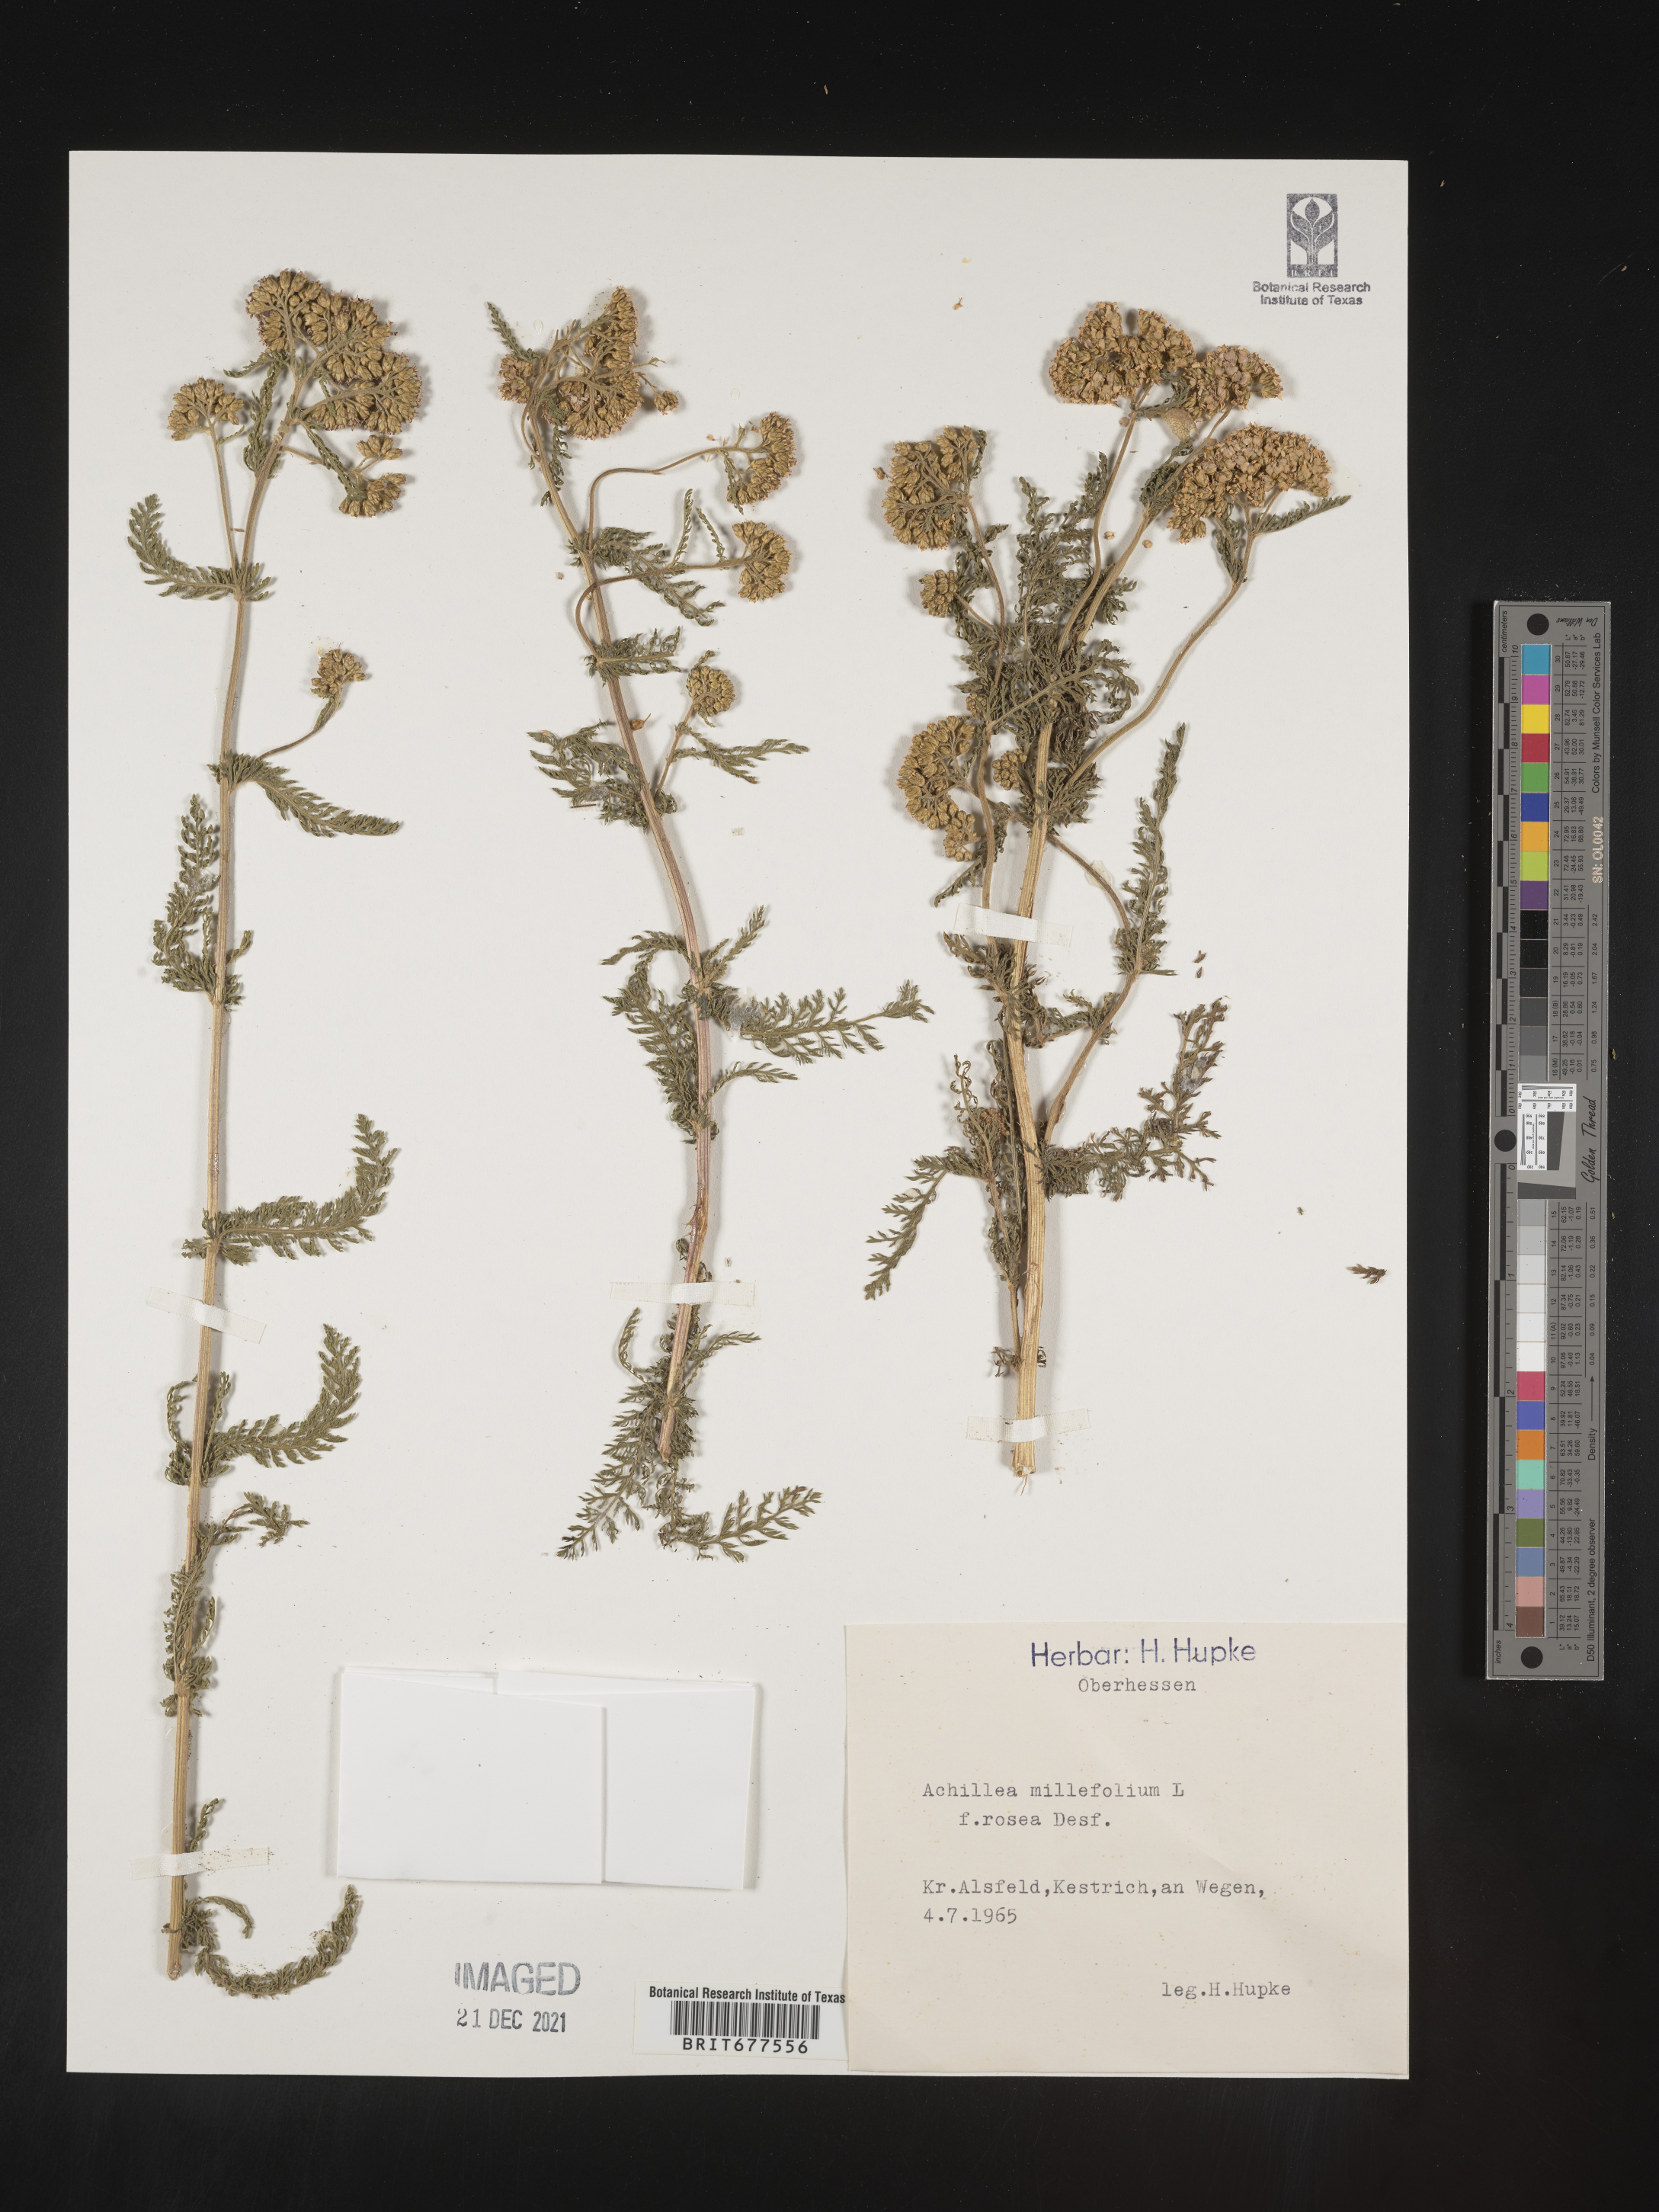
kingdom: Plantae
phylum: Tracheophyta
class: Magnoliopsida
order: Asterales
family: Asteraceae
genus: Achillea
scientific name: Achillea millefolium
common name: Yarrow
